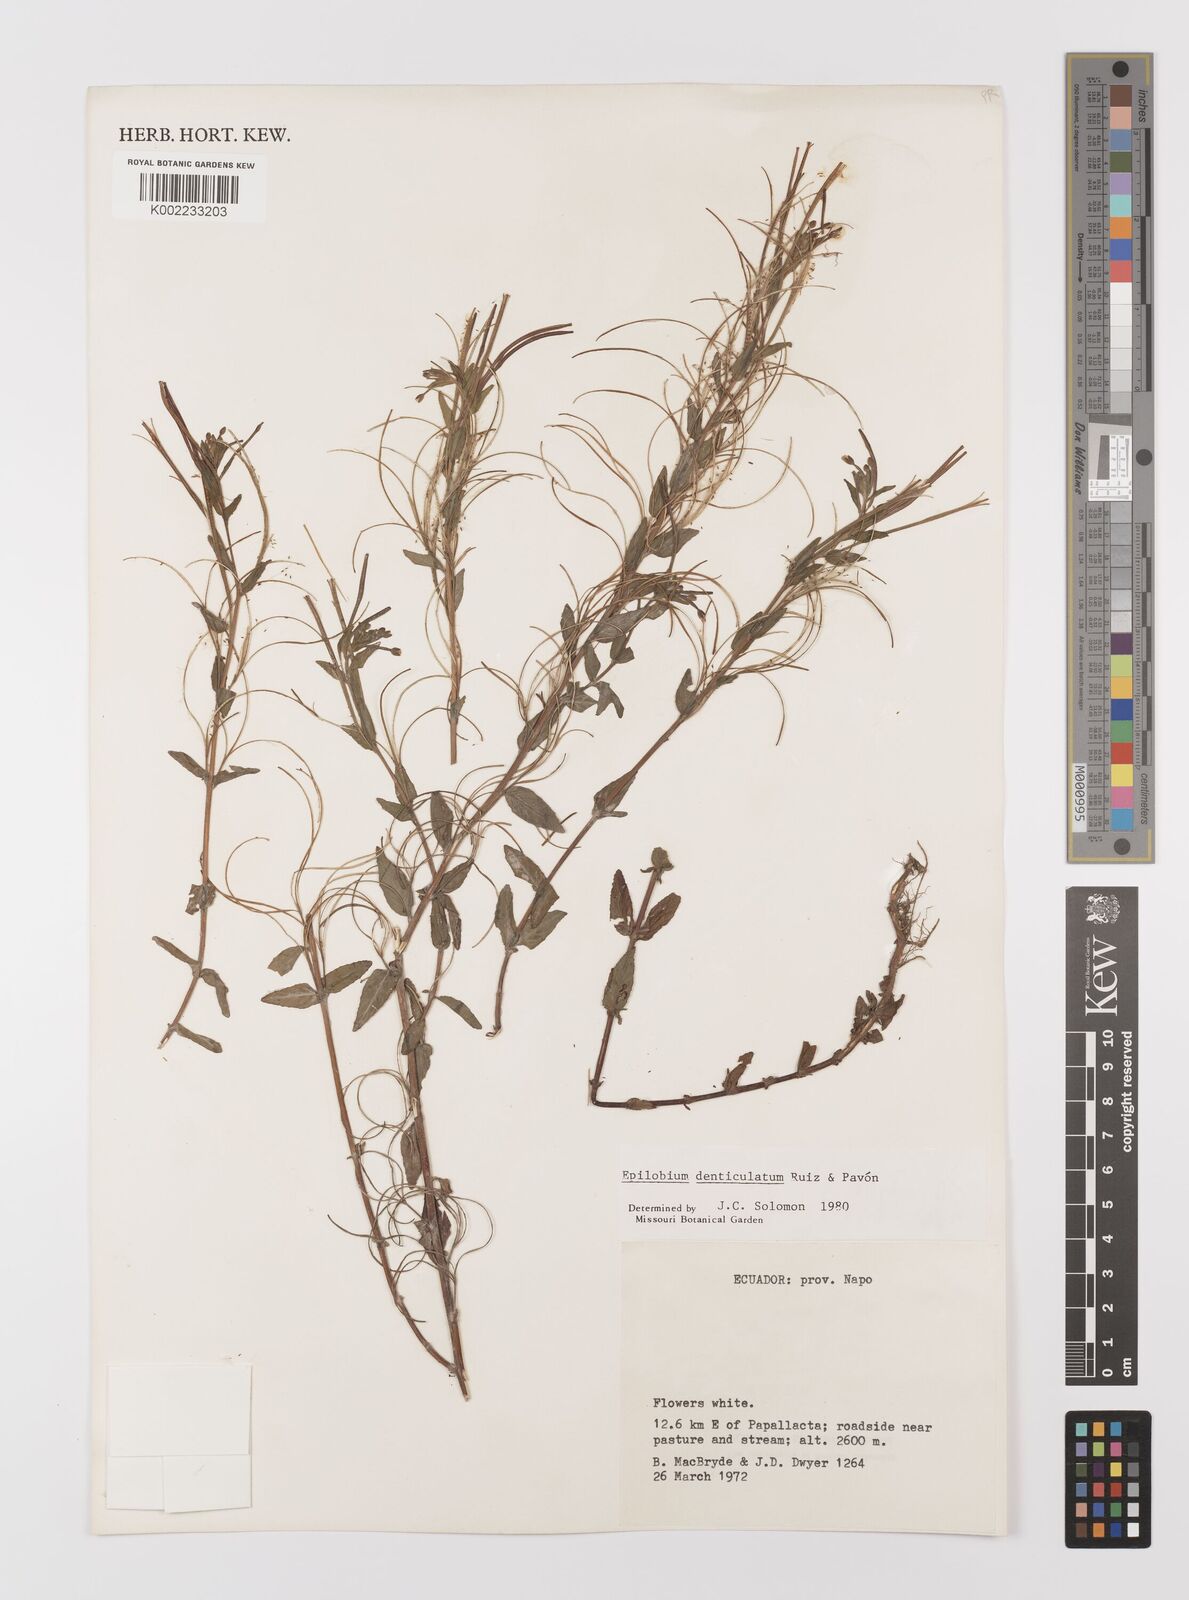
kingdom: Plantae
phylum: Tracheophyta
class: Magnoliopsida
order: Myrtales
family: Onagraceae
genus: Epilobium
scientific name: Epilobium denticulatum
